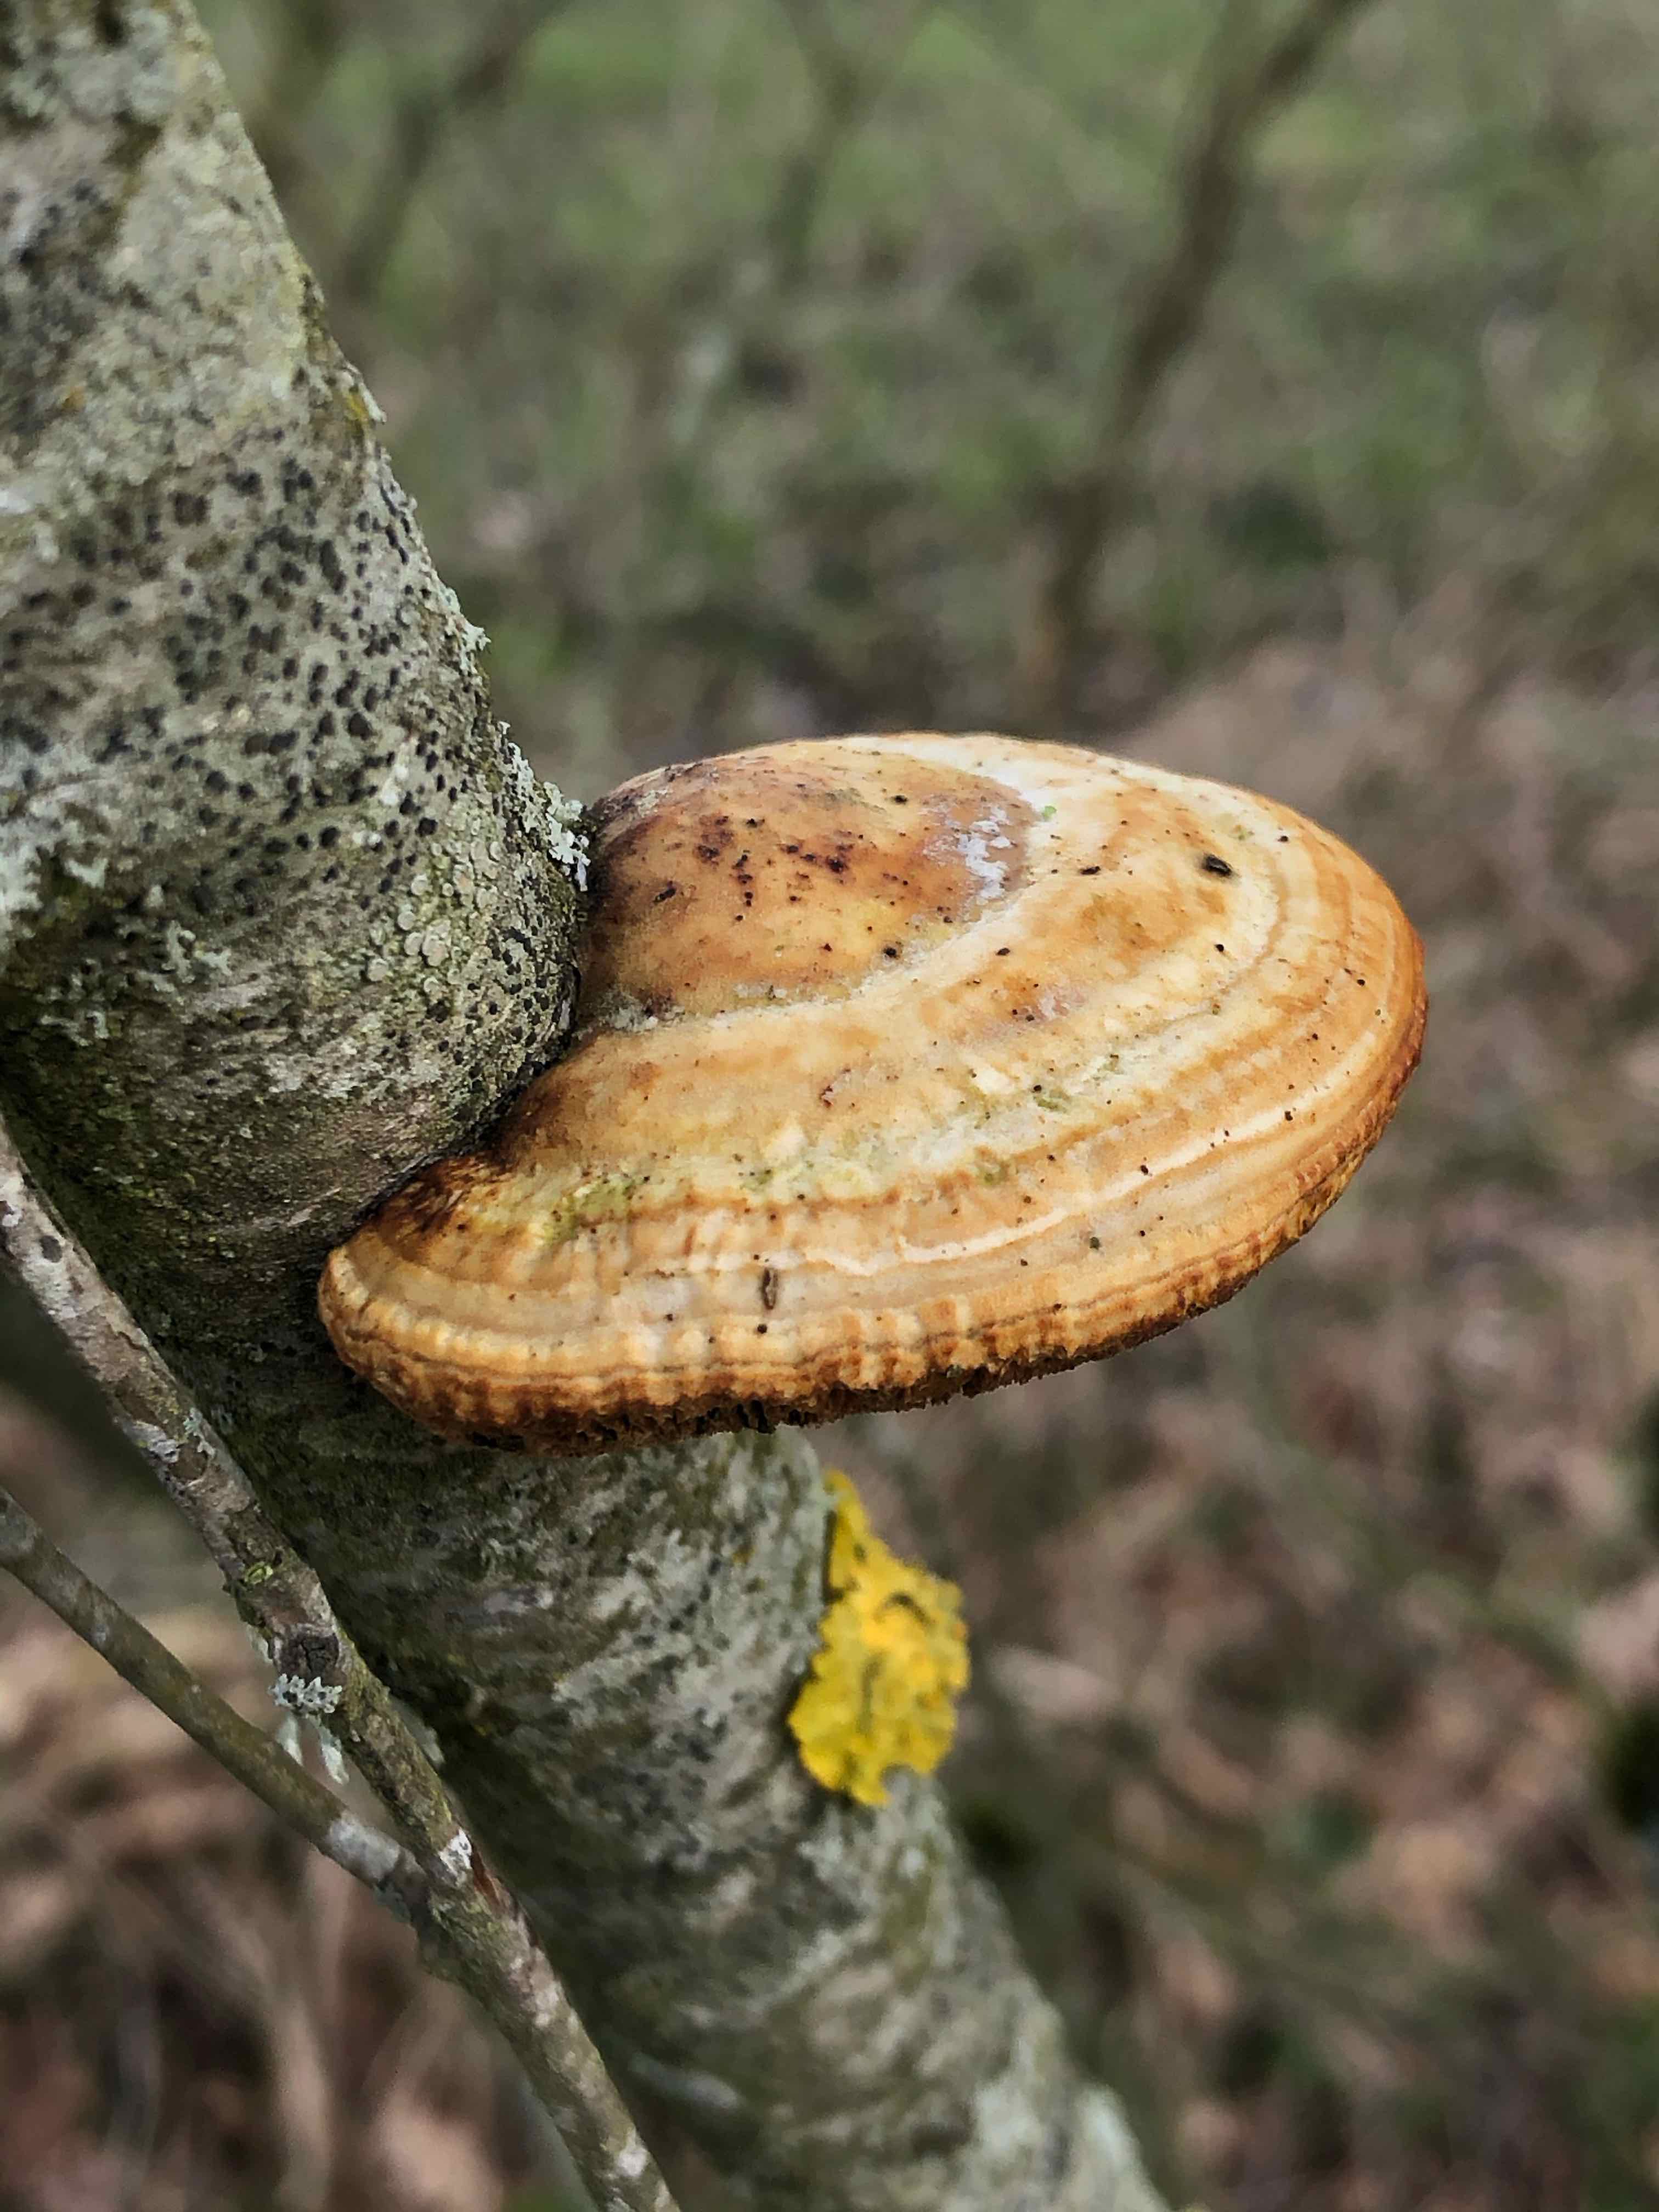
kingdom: Fungi
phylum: Basidiomycota
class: Agaricomycetes
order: Polyporales
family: Polyporaceae
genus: Daedaleopsis
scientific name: Daedaleopsis confragosa
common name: rødmende læderporesvamp
